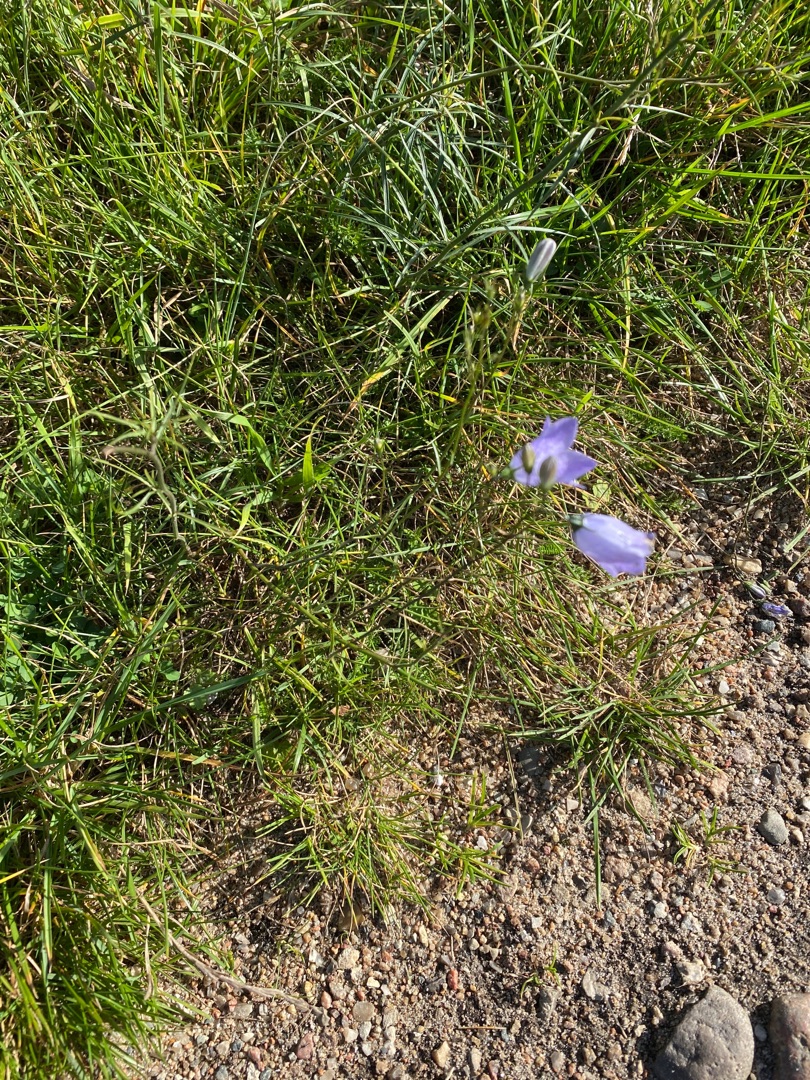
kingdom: Plantae
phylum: Tracheophyta
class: Magnoliopsida
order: Asterales
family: Campanulaceae
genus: Campanula
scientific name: Campanula rotundifolia
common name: Liden klokke
